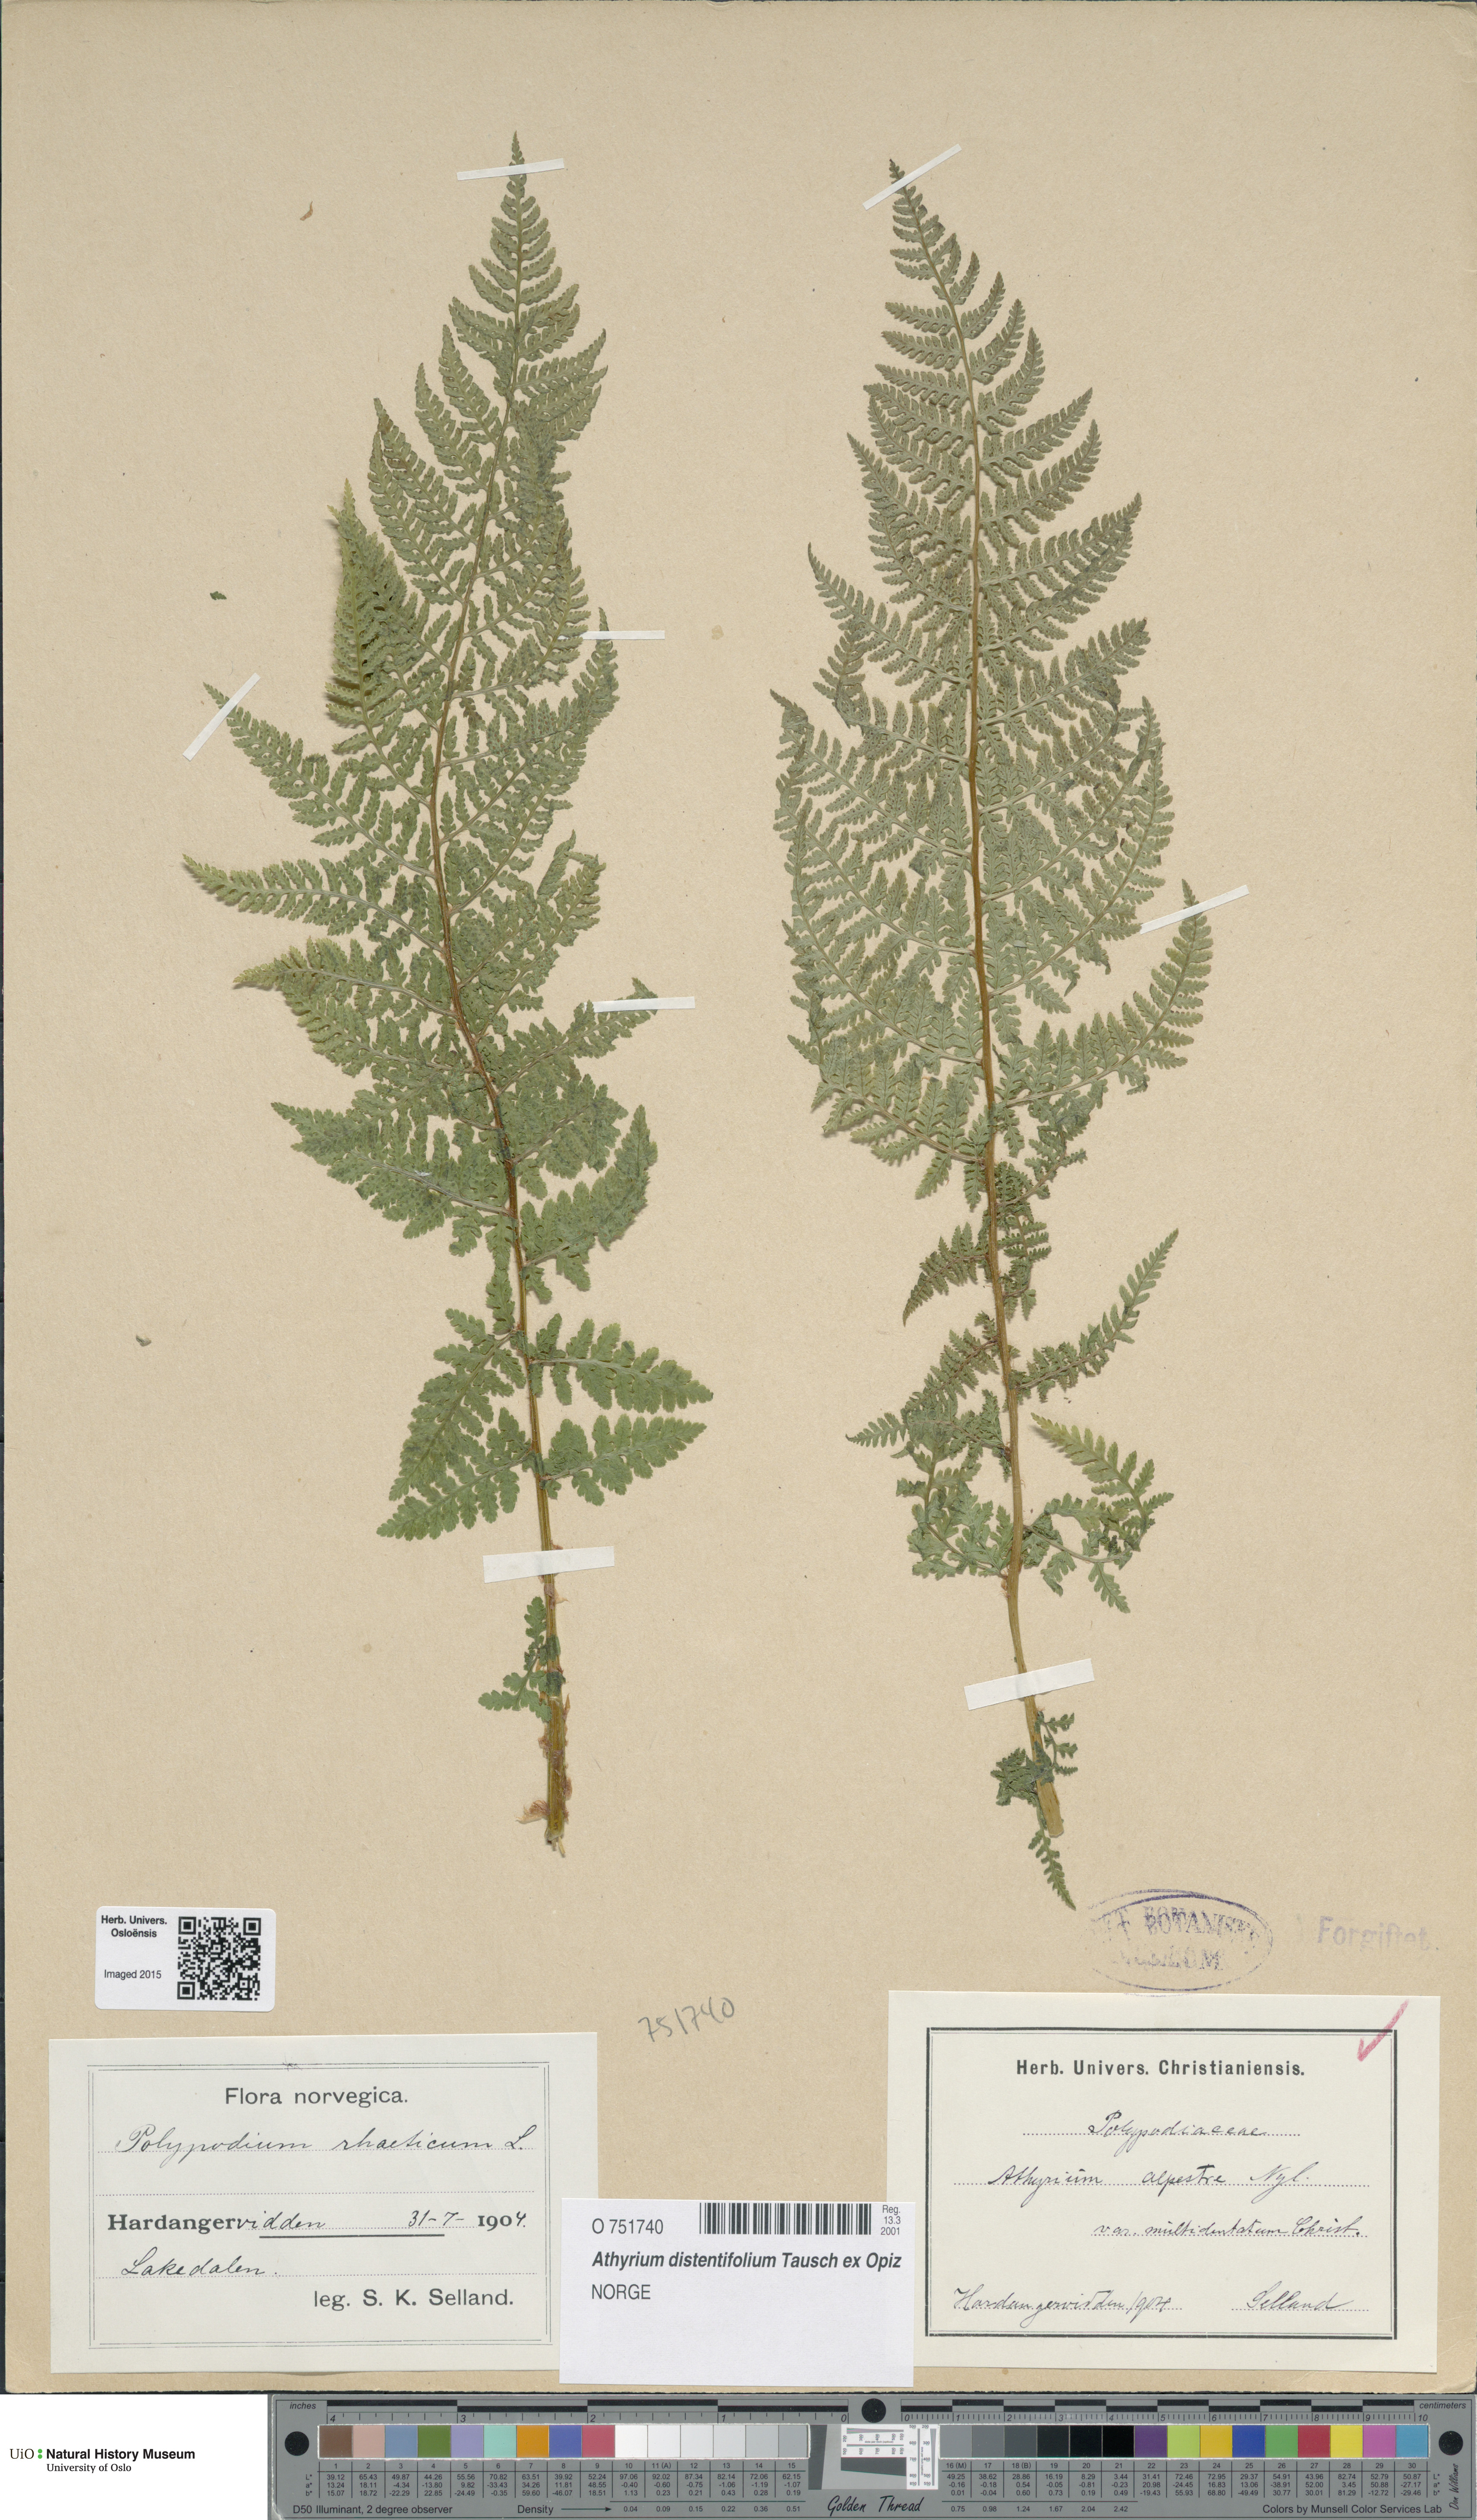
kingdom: Plantae
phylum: Tracheophyta
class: Polypodiopsida
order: Polypodiales
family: Athyriaceae
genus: Pseudathyrium
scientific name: Pseudathyrium alpestre
